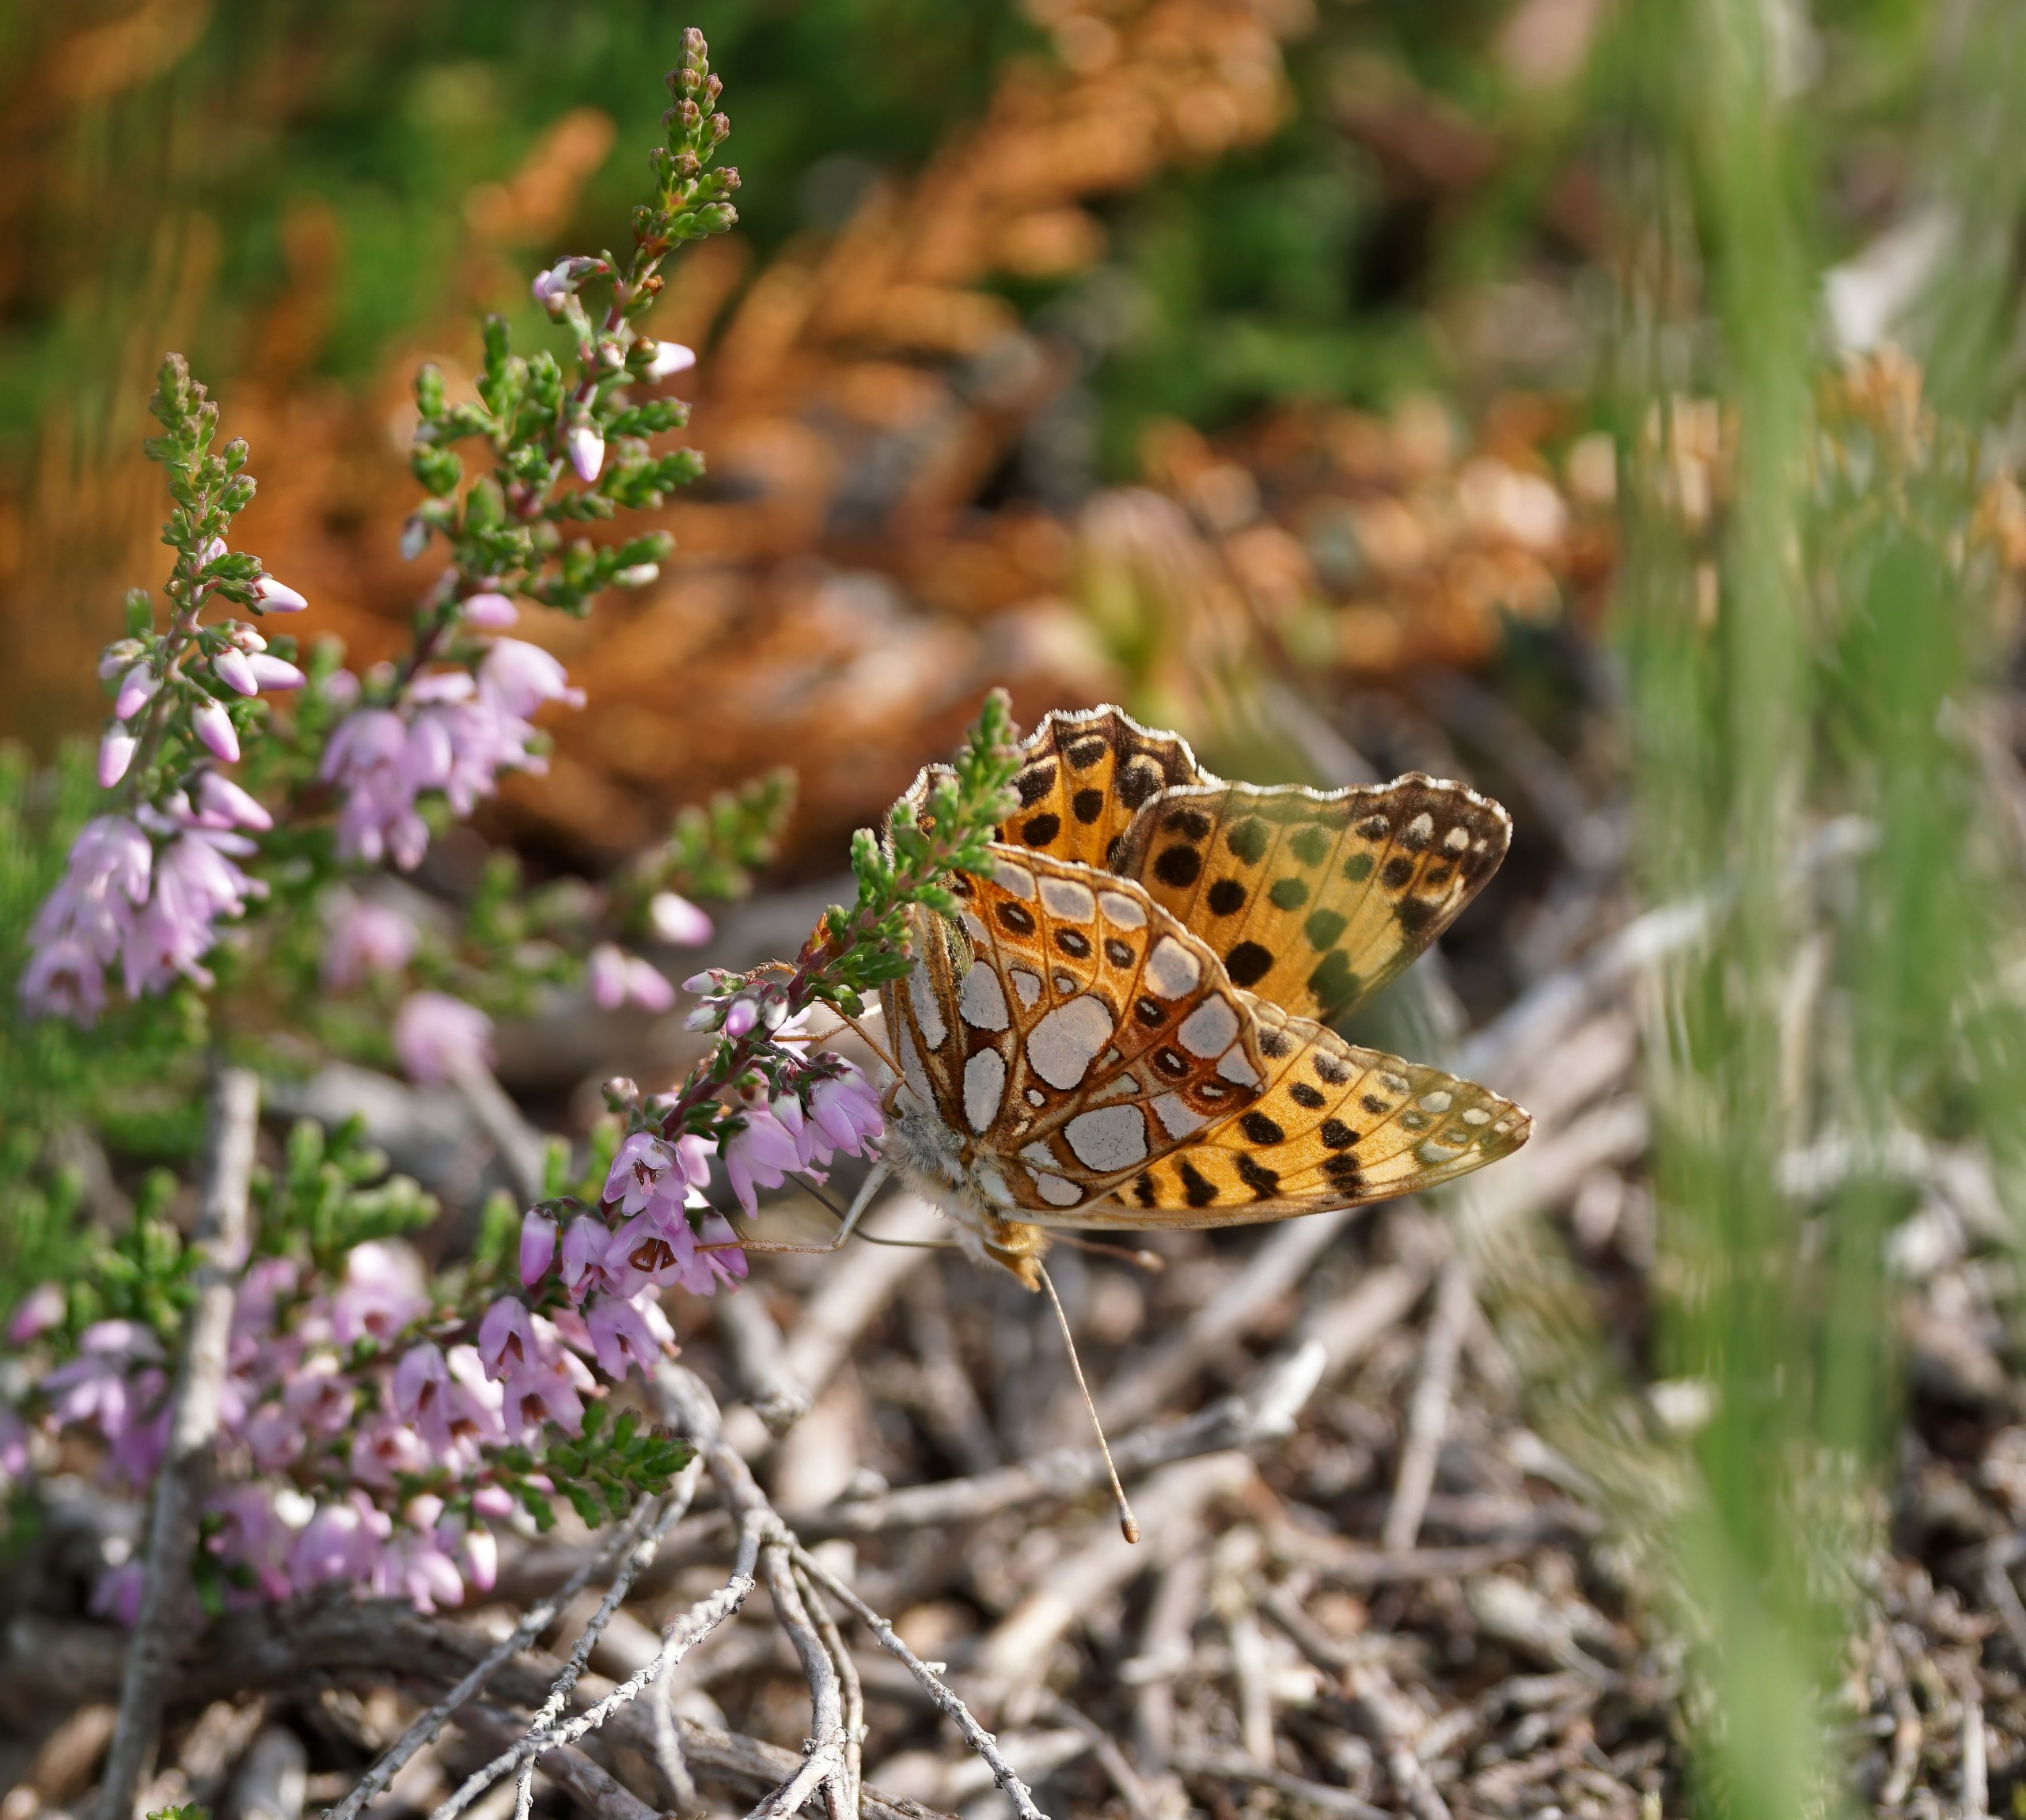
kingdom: Animalia
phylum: Arthropoda
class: Insecta
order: Lepidoptera
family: Nymphalidae
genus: Issoria
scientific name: Issoria lathonia
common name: Storplettet perlemorsommerfugl
